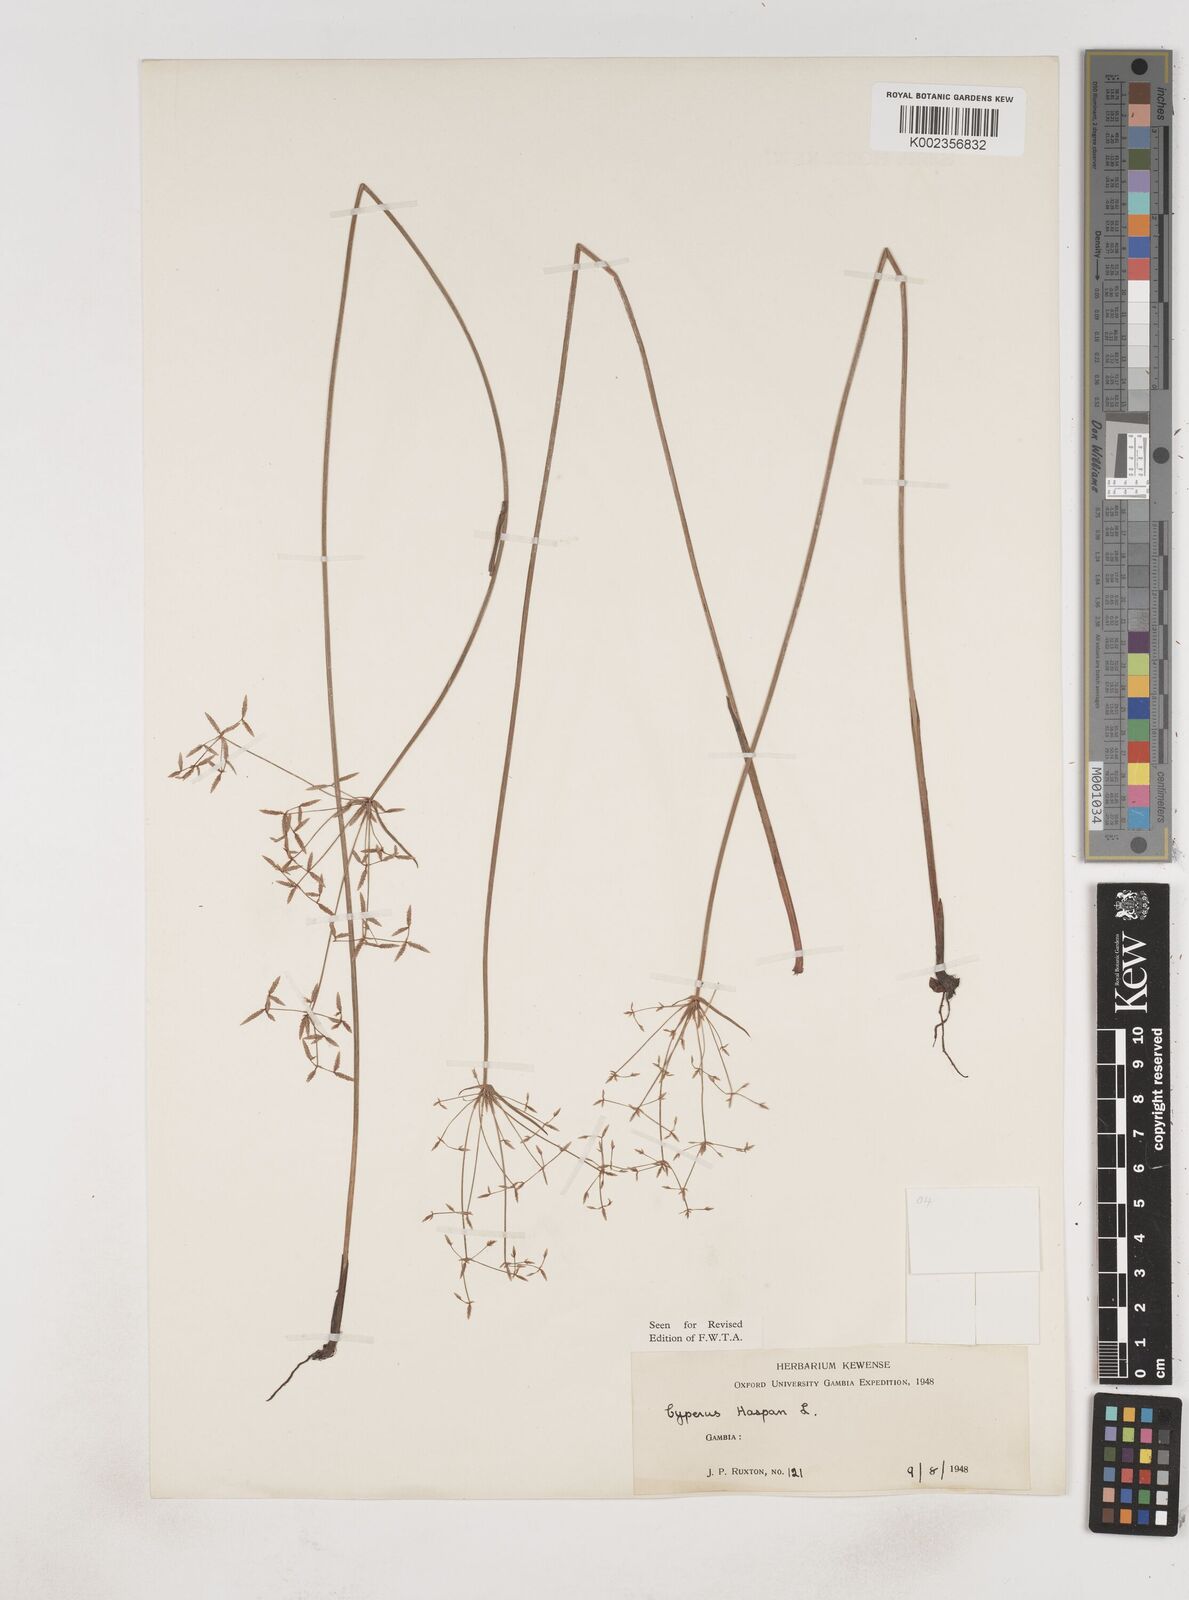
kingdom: Plantae
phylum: Tracheophyta
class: Liliopsida
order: Poales
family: Cyperaceae
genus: Cyperus
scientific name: Cyperus haspan
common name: Haspan flatsedge
